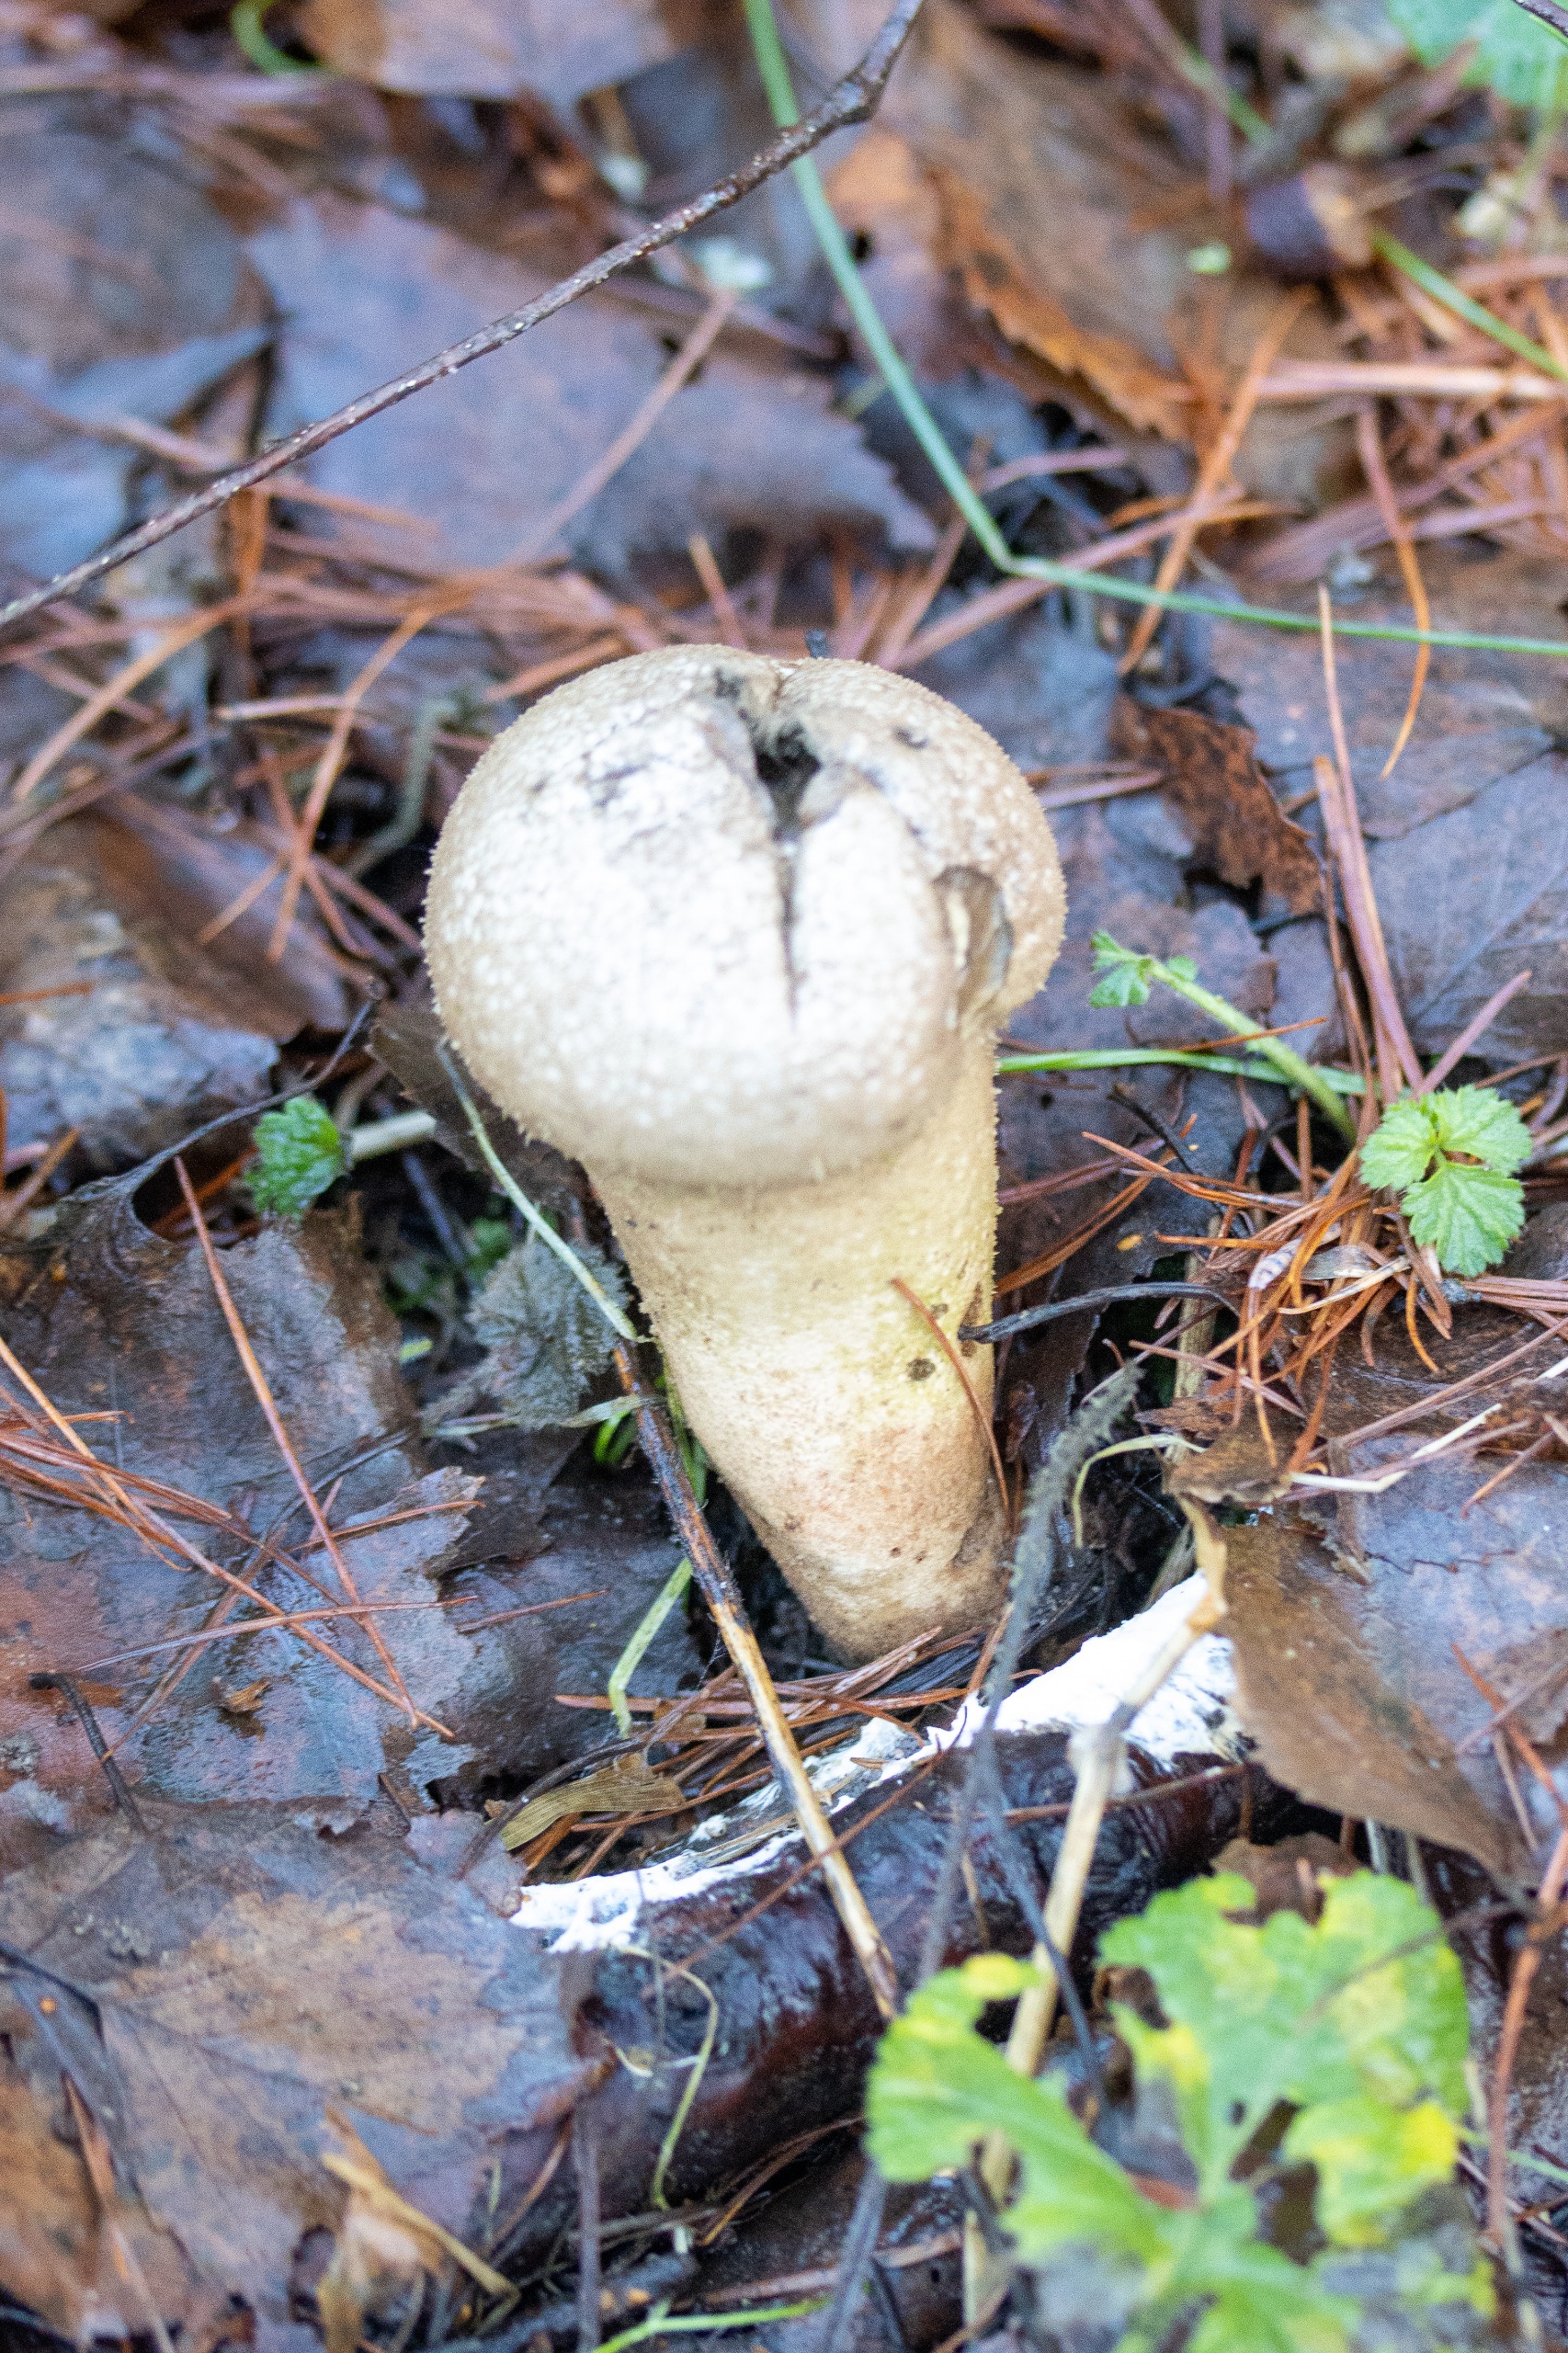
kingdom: Fungi
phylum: Basidiomycota
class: Agaricomycetes
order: Agaricales
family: Lycoperdaceae
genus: Lycoperdon
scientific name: Lycoperdon excipuliforme
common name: Højstokket støvbold
